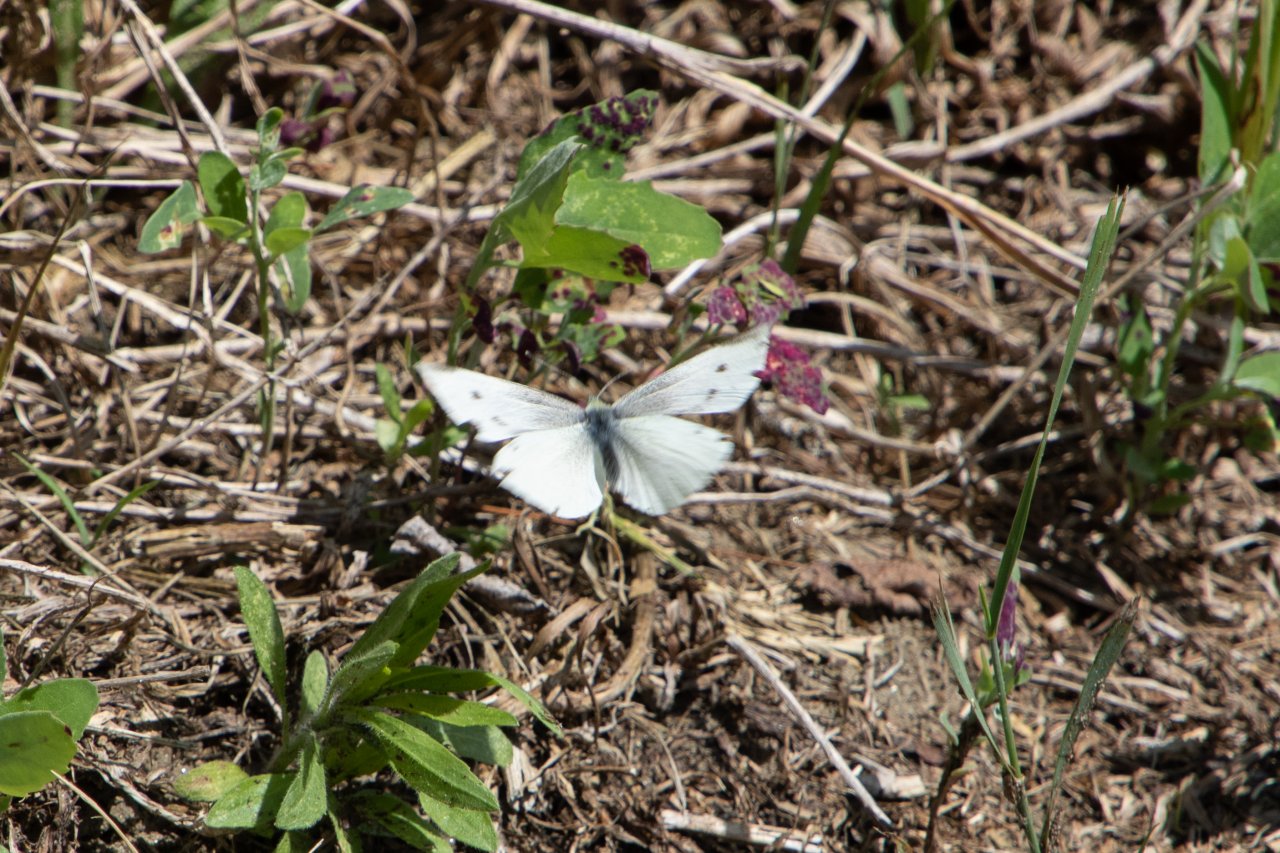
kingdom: Animalia
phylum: Arthropoda
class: Insecta
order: Lepidoptera
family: Pieridae
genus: Pieris
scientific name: Pieris rapae
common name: Cabbage White
